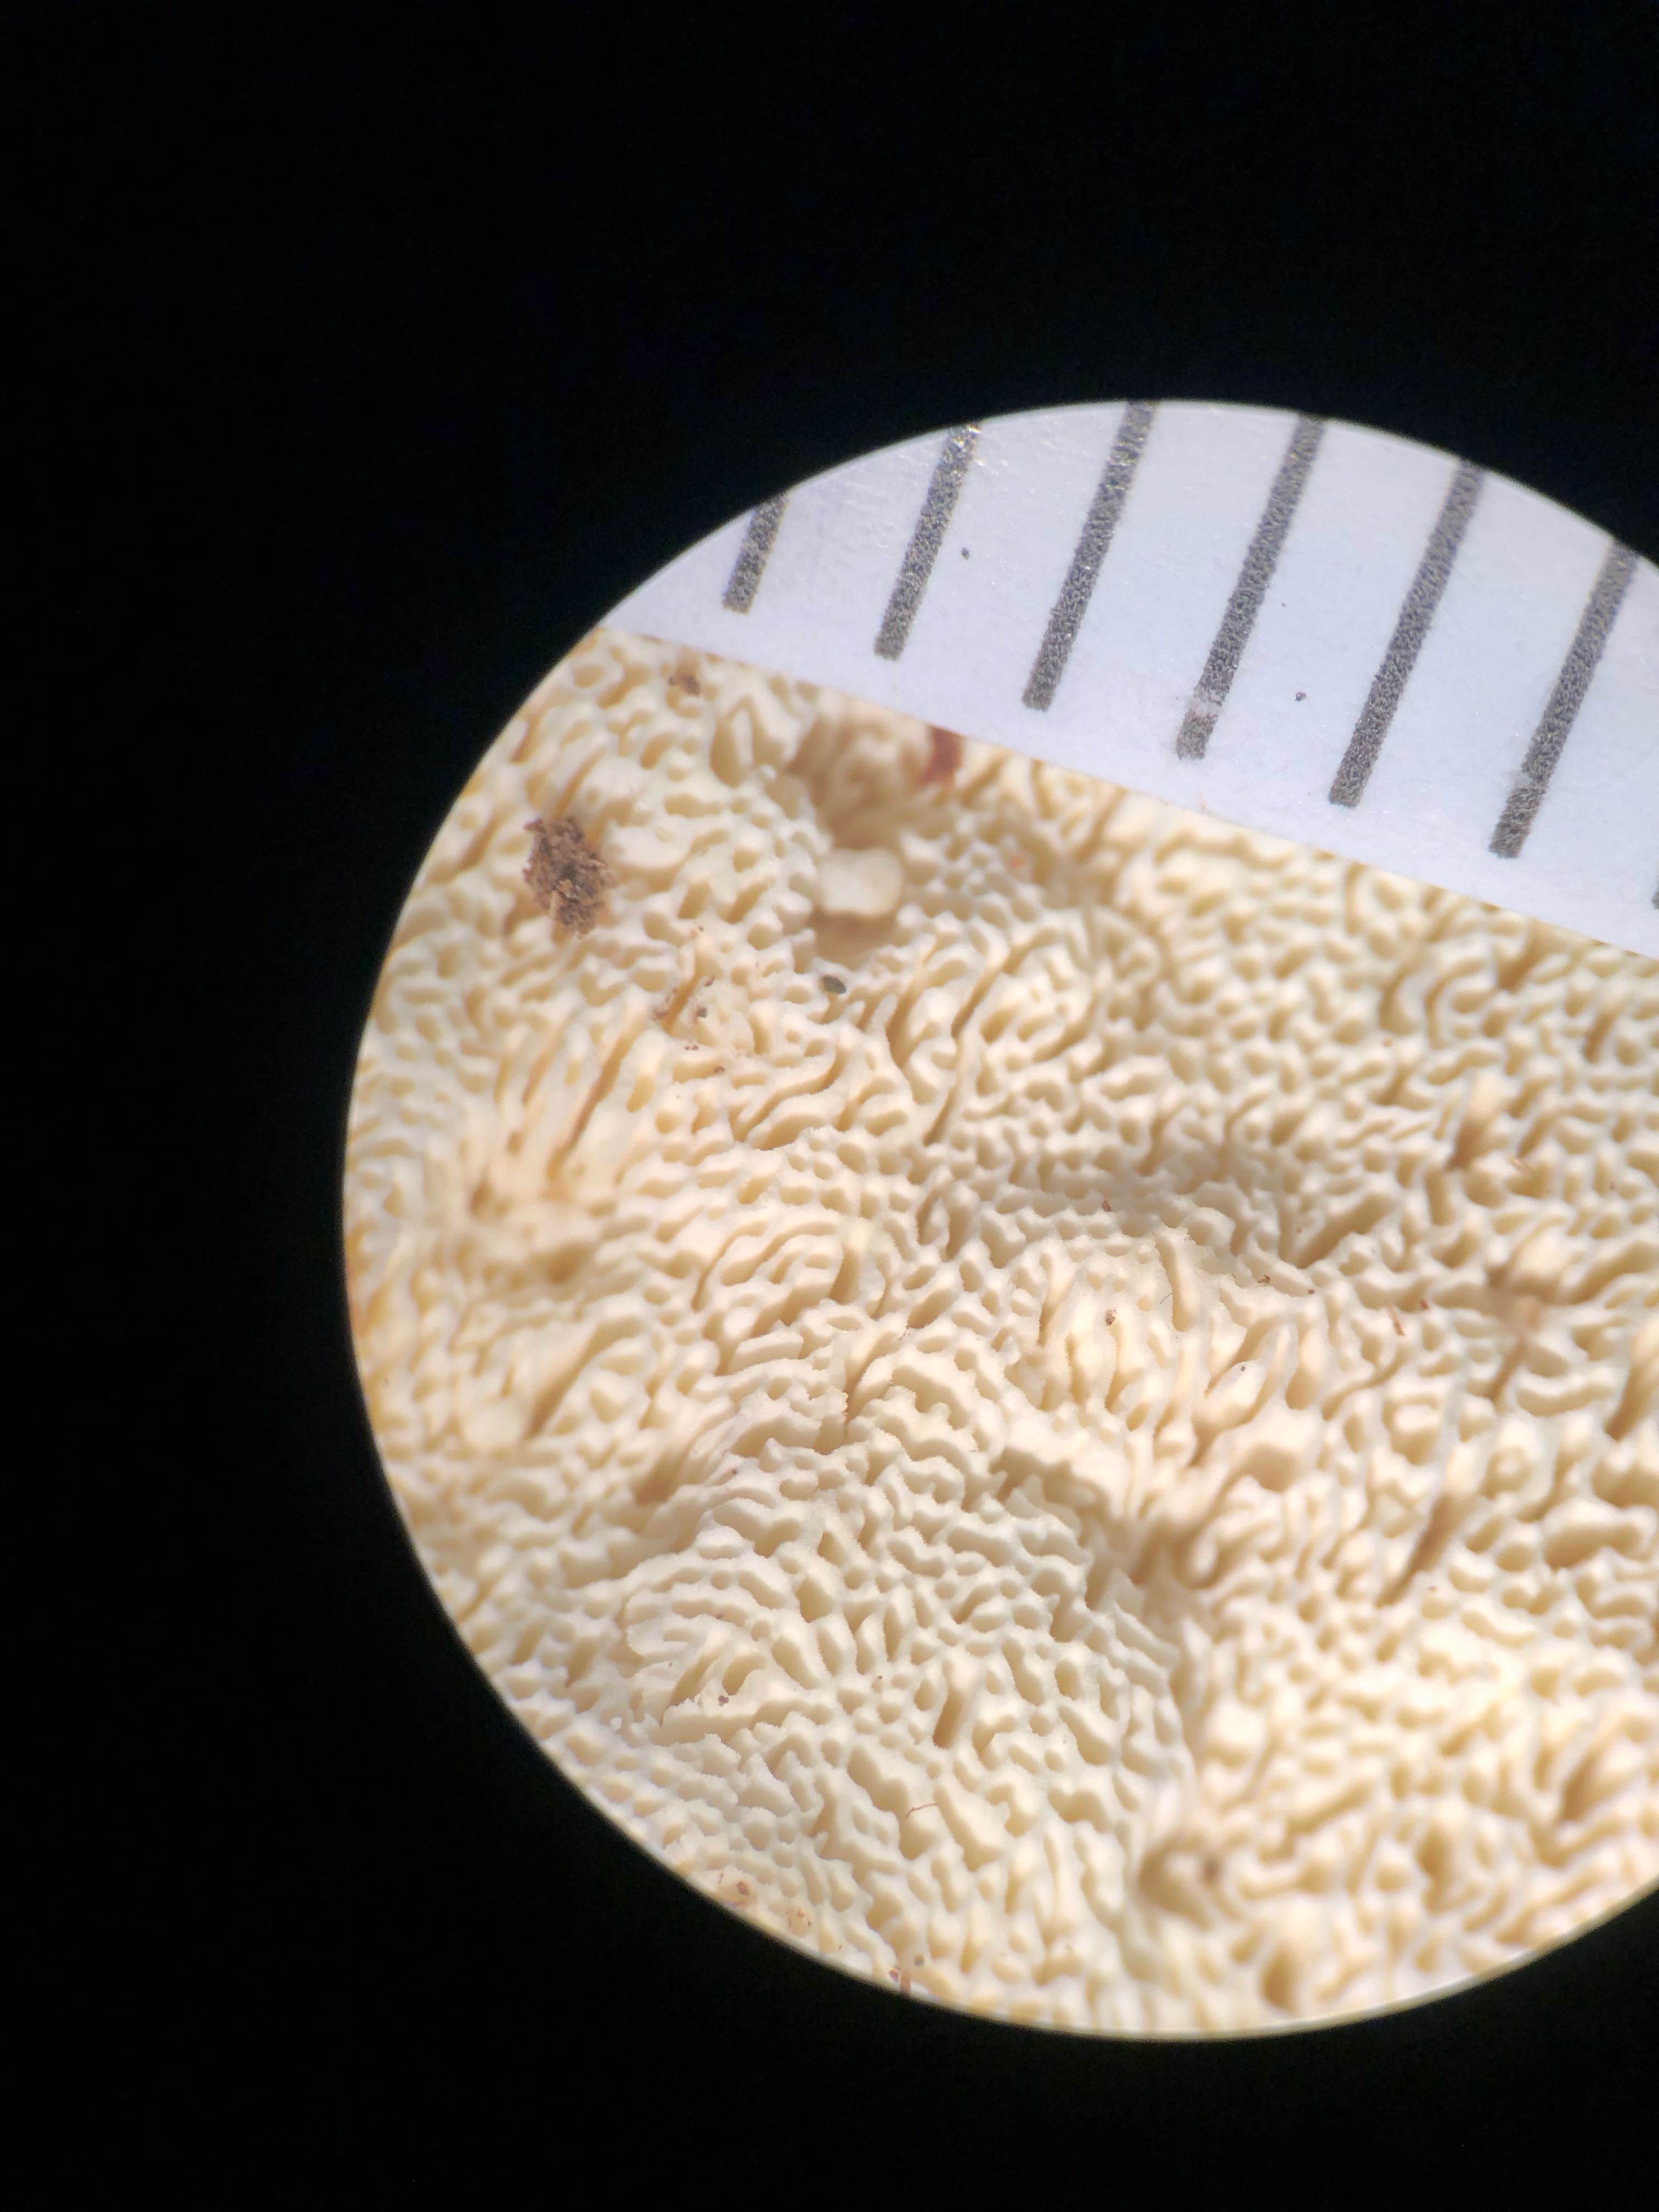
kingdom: Fungi
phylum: Basidiomycota
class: Agaricomycetes
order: Polyporales
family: Fomitopsidaceae
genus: Daedalea
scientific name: Daedalea xantha
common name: gul sejporesvamp
